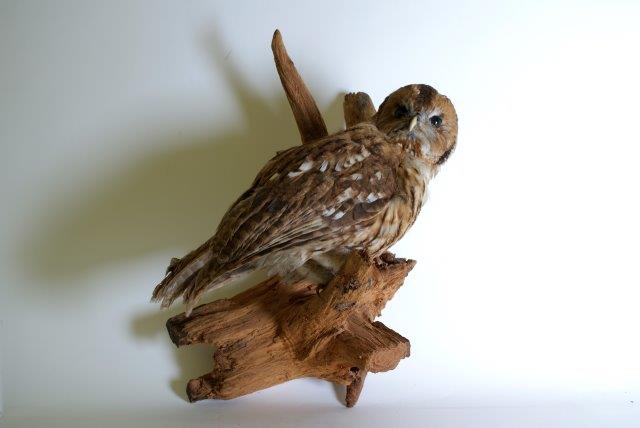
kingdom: Animalia
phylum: Chordata
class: Aves
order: Strigiformes
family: Strigidae
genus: Strix
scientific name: Strix aluco
